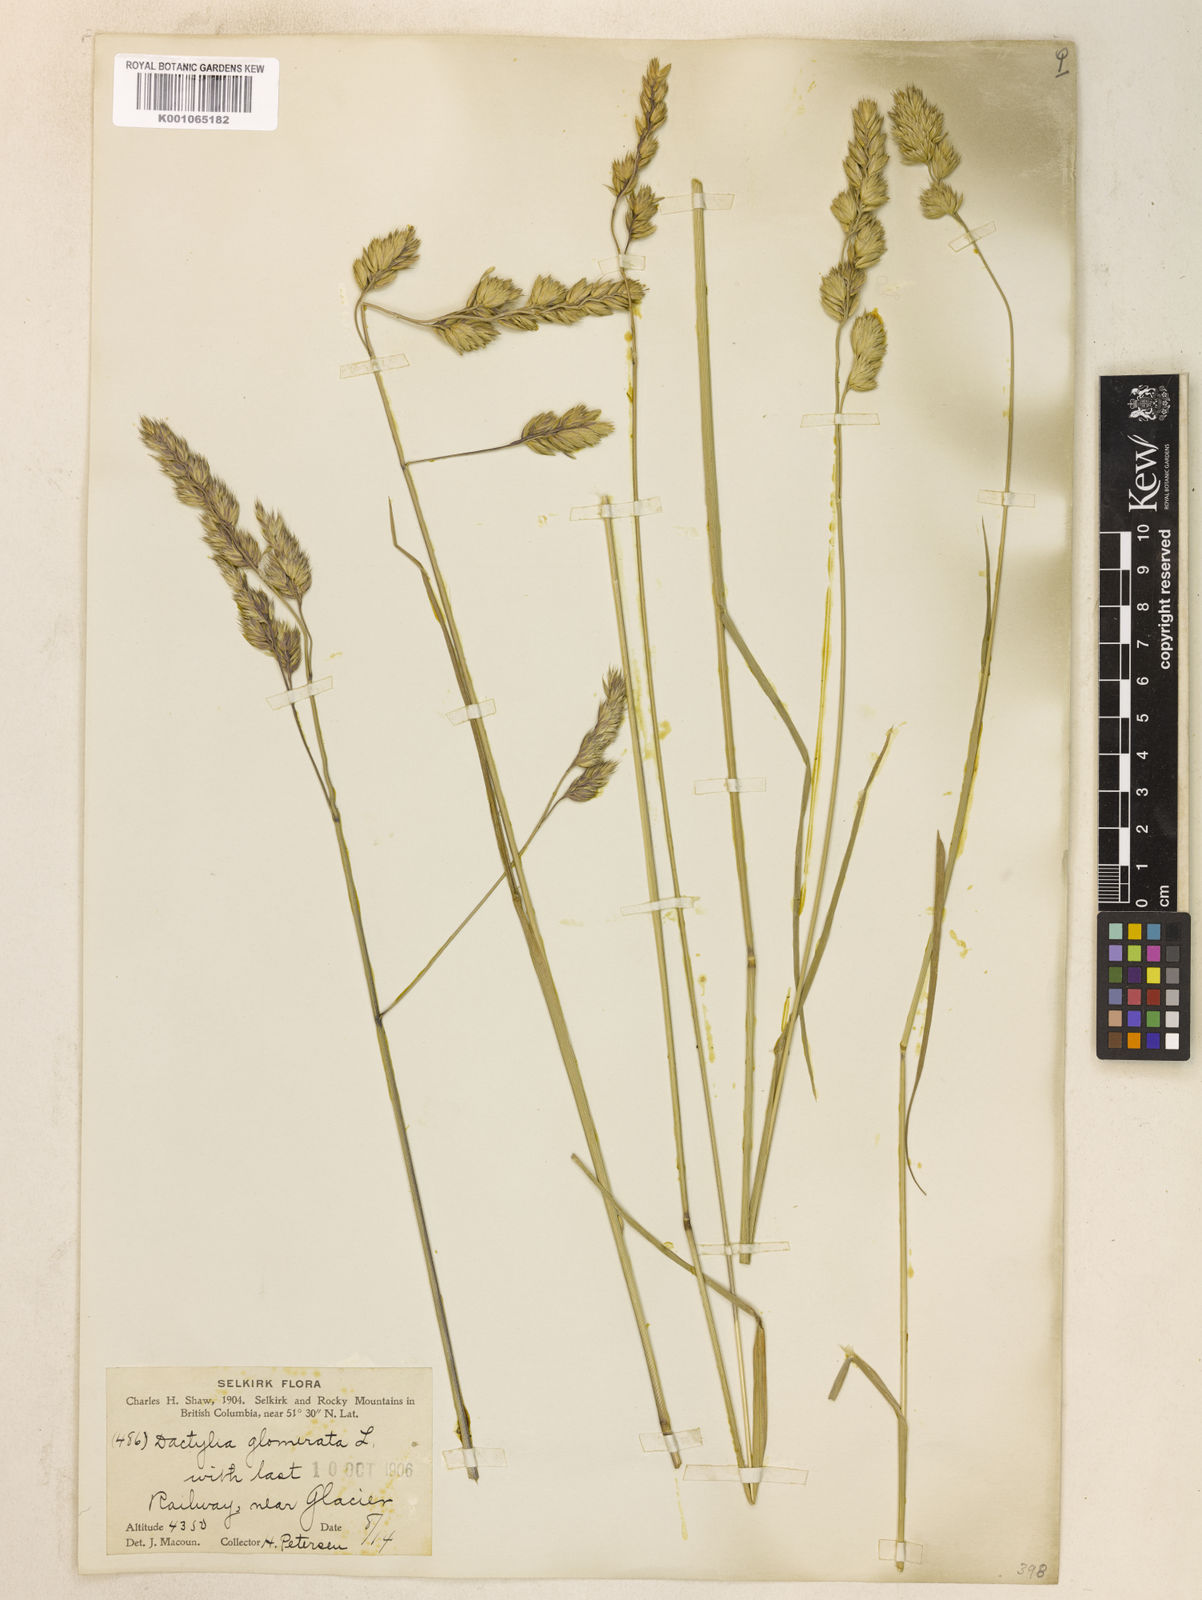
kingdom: Plantae
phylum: Tracheophyta
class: Liliopsida
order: Poales
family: Poaceae
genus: Dactylis
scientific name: Dactylis glomerata
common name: Orchardgrass
